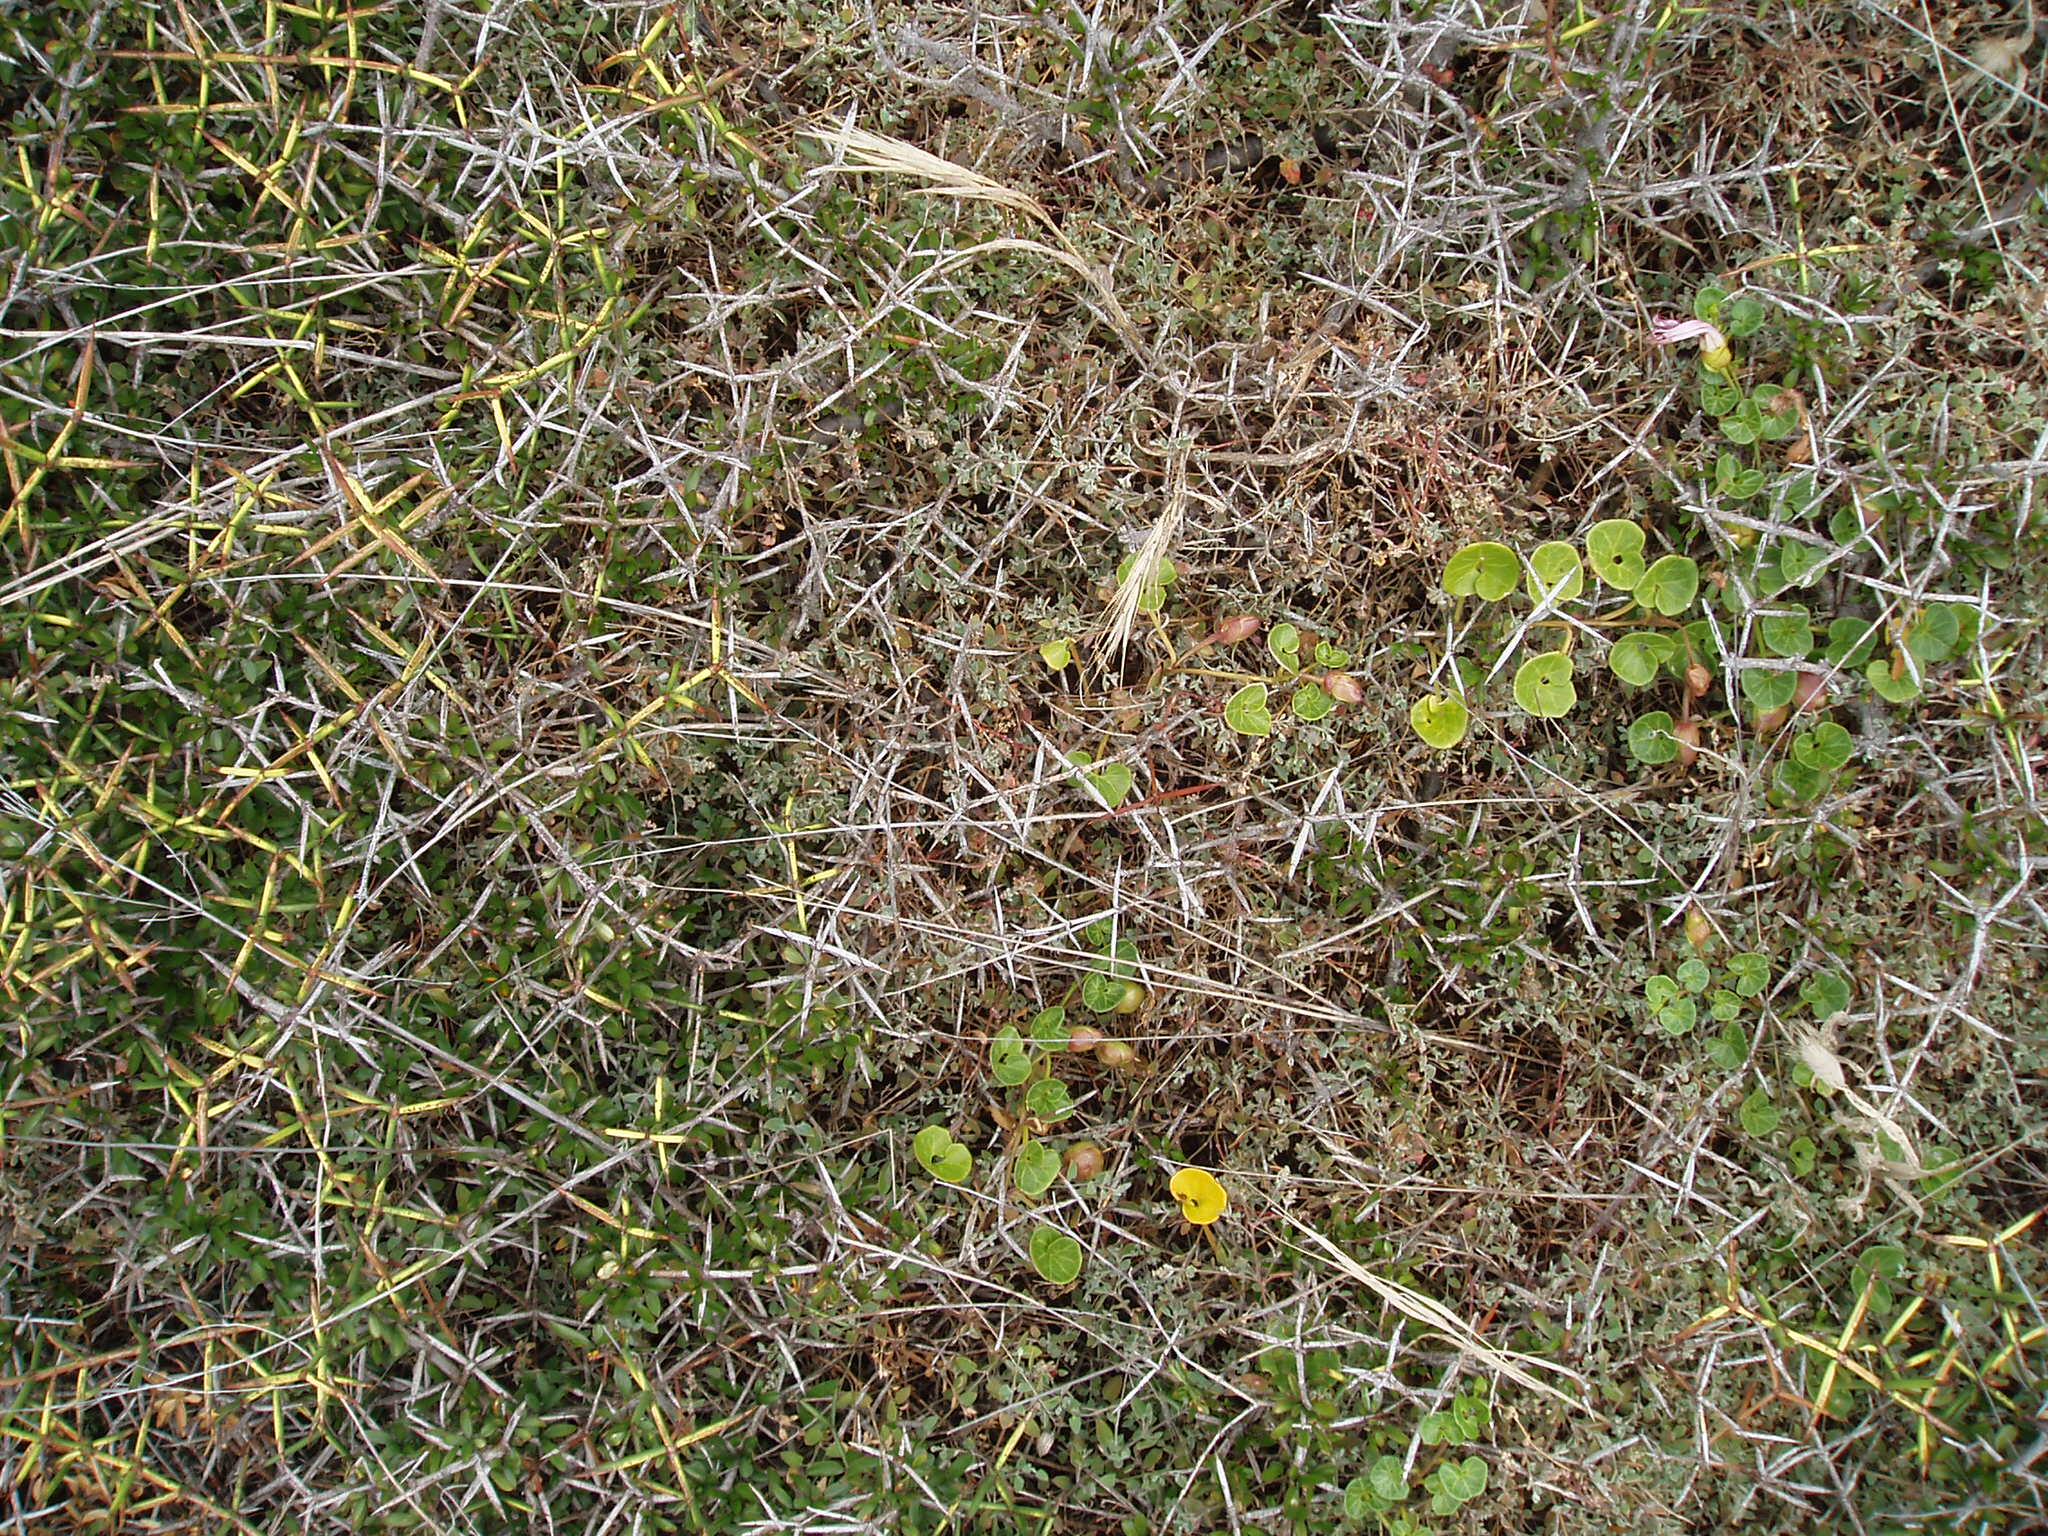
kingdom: Plantae
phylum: Tracheophyta
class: Magnoliopsida
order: Caryophyllales
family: Amaranthaceae
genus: Chenopodium
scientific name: Chenopodium triandrum
